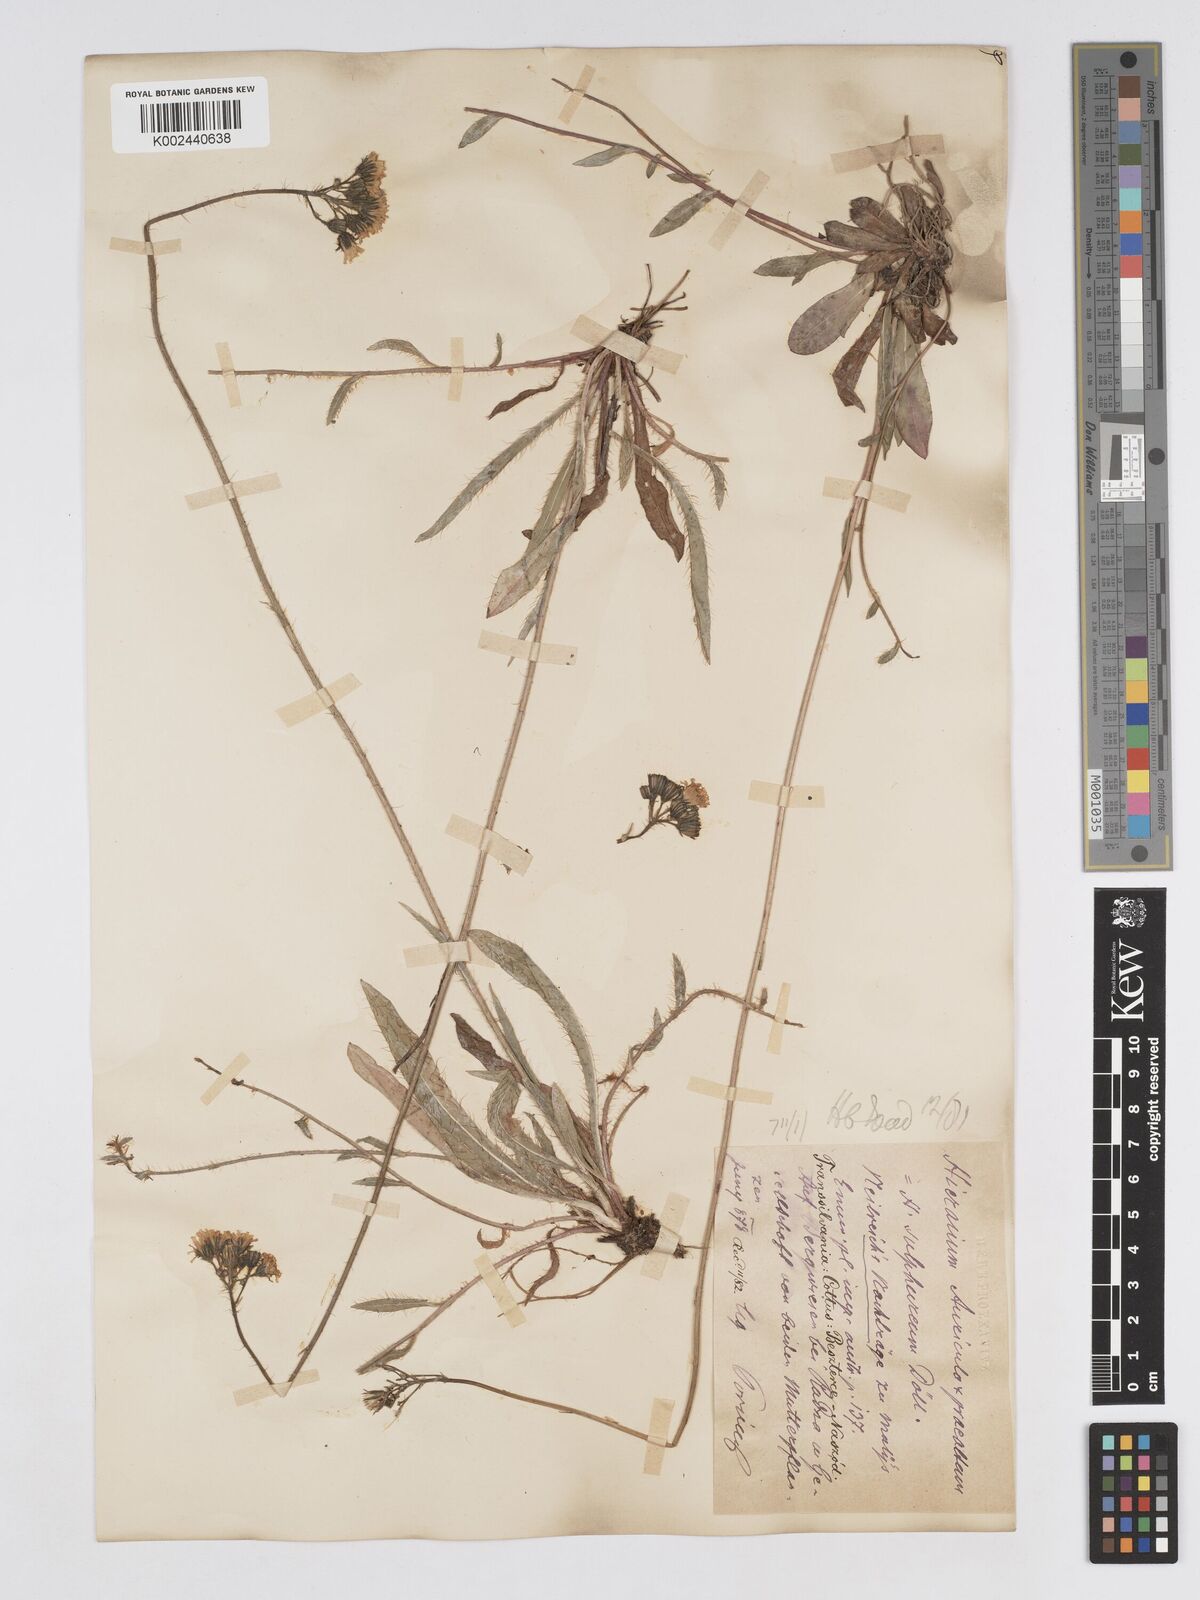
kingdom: Plantae
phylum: Tracheophyta
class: Magnoliopsida
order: Asterales
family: Asteraceae
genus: Pilosella
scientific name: Pilosella floribunda
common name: Glaucous hawkweed
